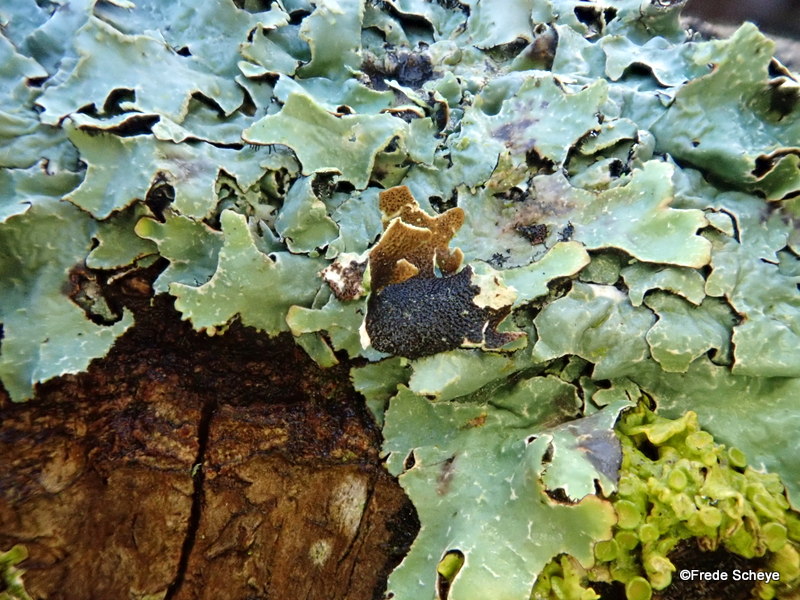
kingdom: Fungi
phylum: Ascomycota
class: Lecanoromycetes
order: Lecanorales
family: Parmeliaceae
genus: Parmelia
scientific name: Parmelia sulcata
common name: rynket skållav
